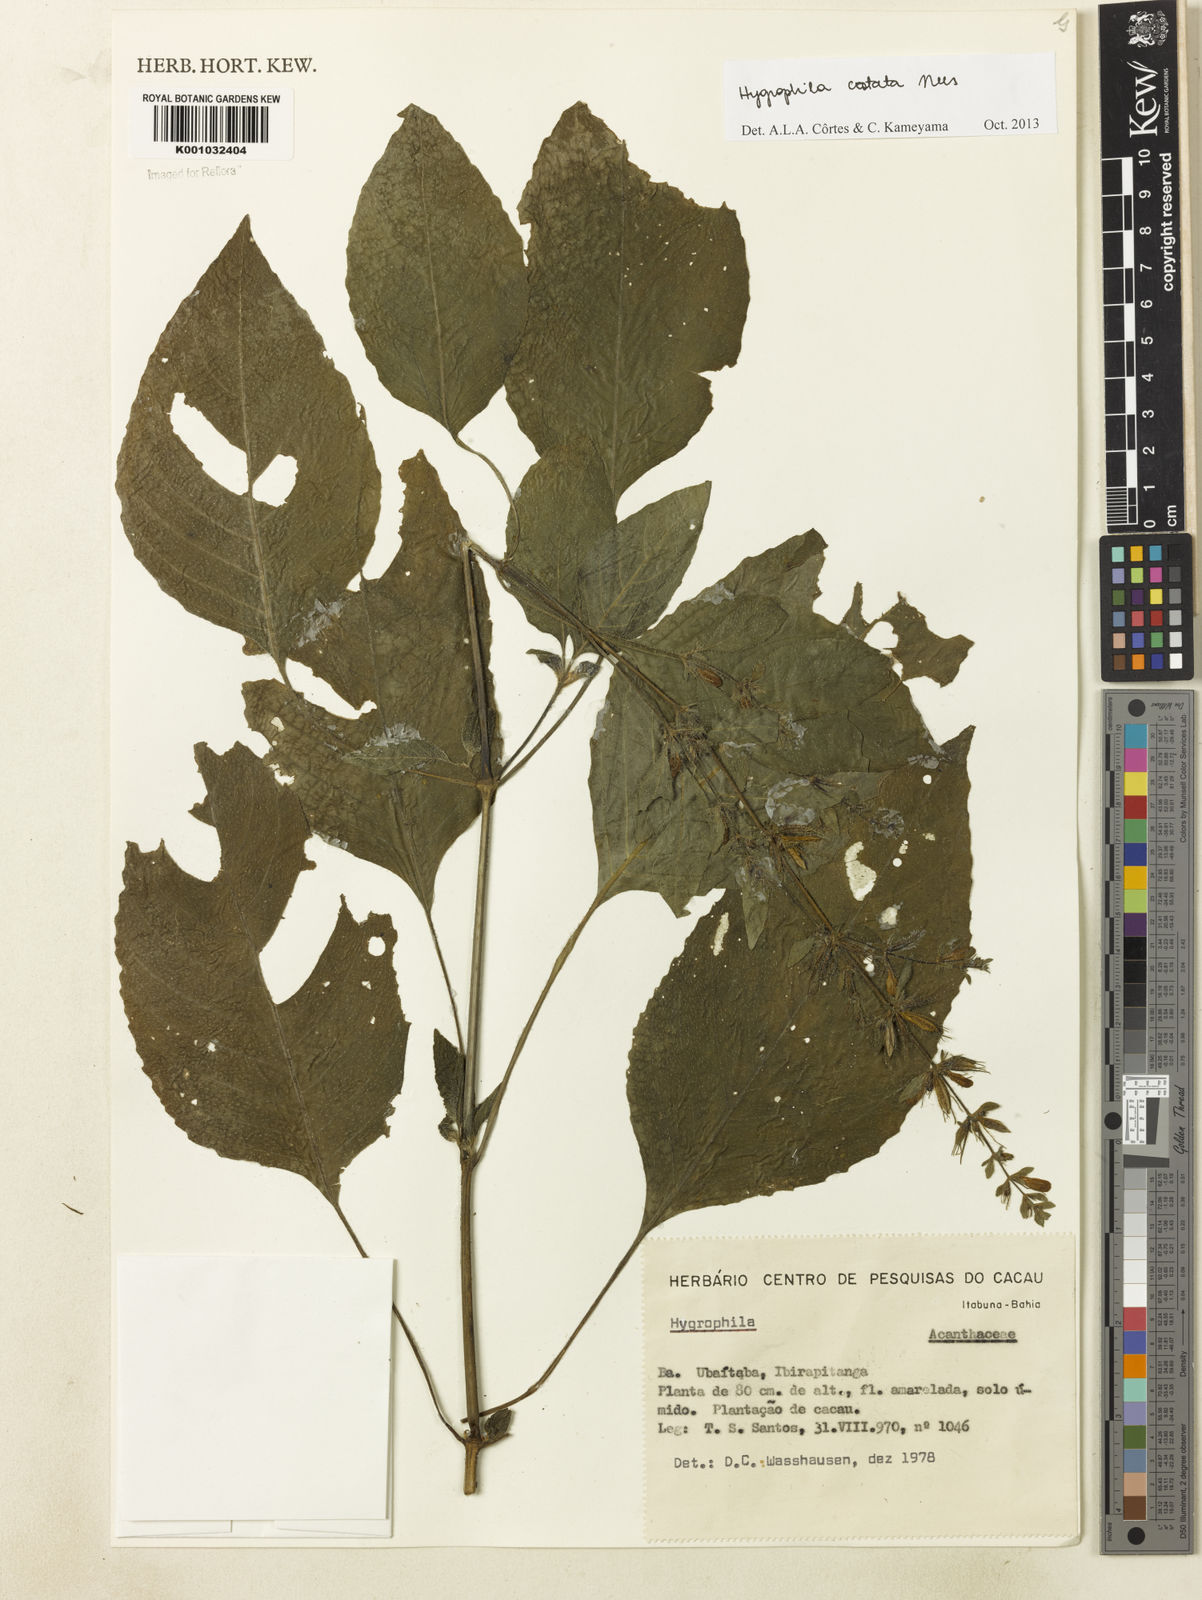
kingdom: Plantae
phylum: Tracheophyta
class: Magnoliopsida
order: Lamiales
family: Acanthaceae
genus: Hygrophila
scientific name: Hygrophila costata
